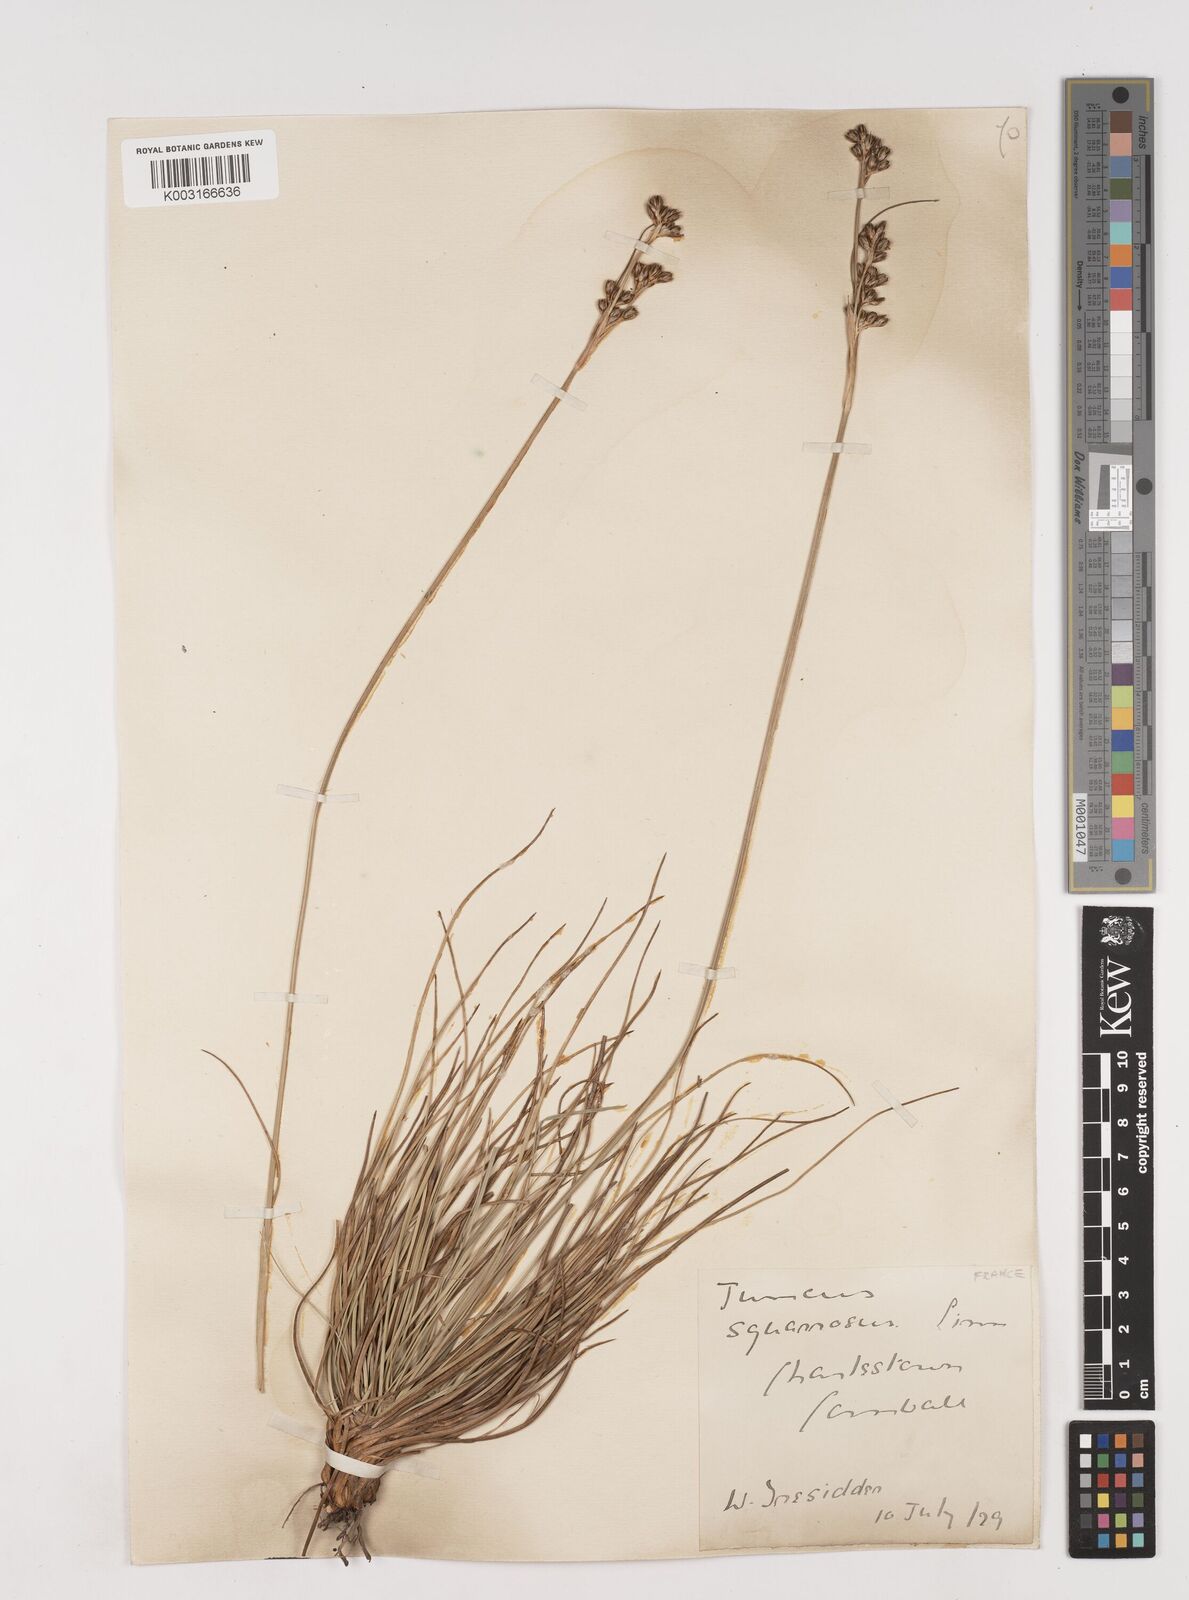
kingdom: Plantae
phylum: Tracheophyta
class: Liliopsida
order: Poales
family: Juncaceae
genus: Juncus
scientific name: Juncus squarrosus
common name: Heath rush
